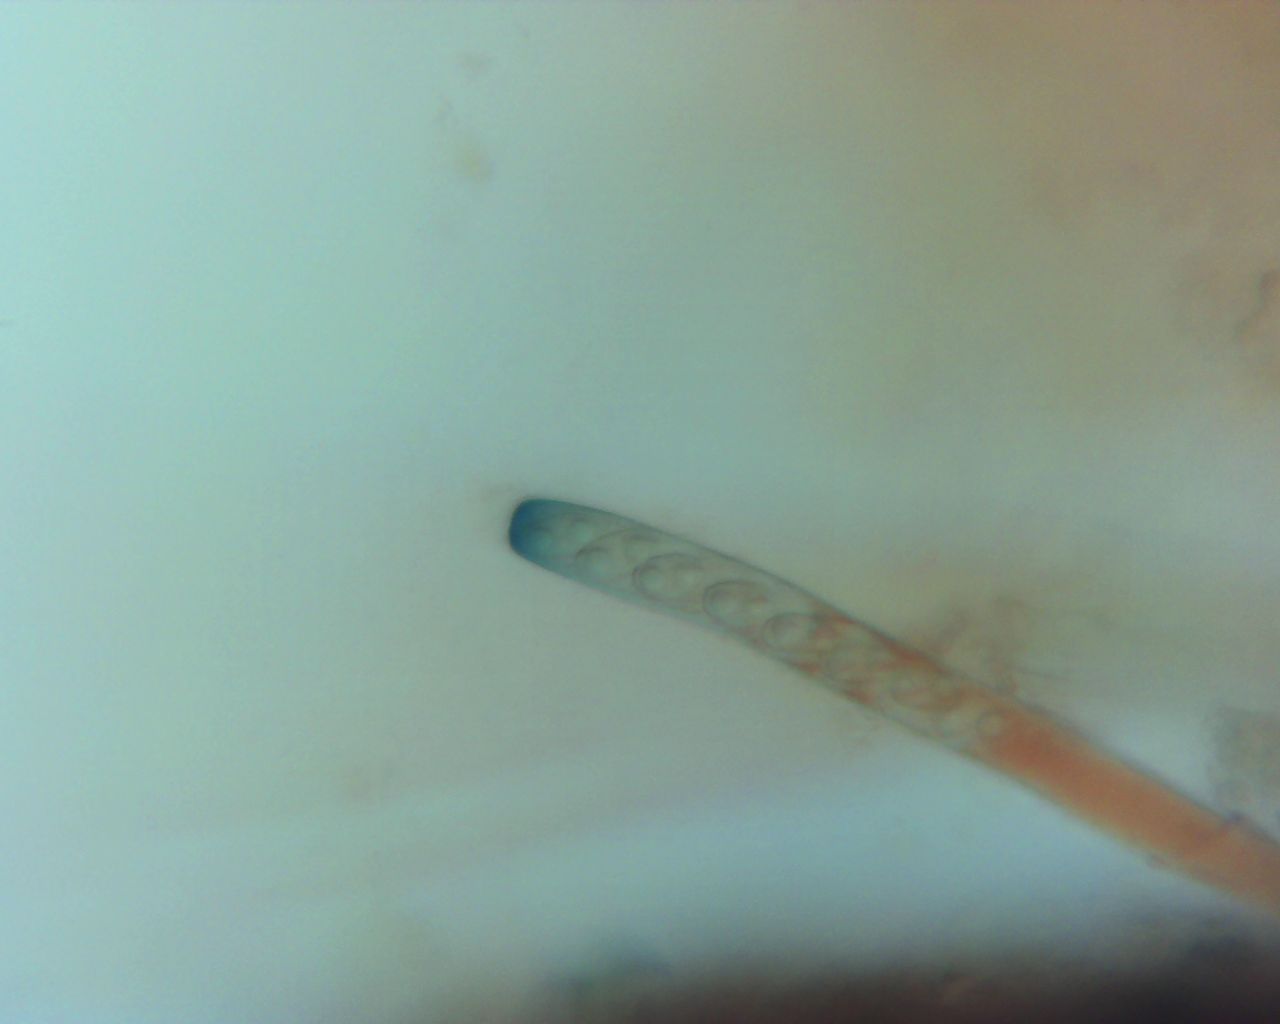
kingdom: Fungi
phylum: Ascomycota
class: Pezizomycetes
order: Pezizales
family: Pezizaceae
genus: Paragalactinia
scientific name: Paragalactinia michelii
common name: gulkødet bægersvamp
